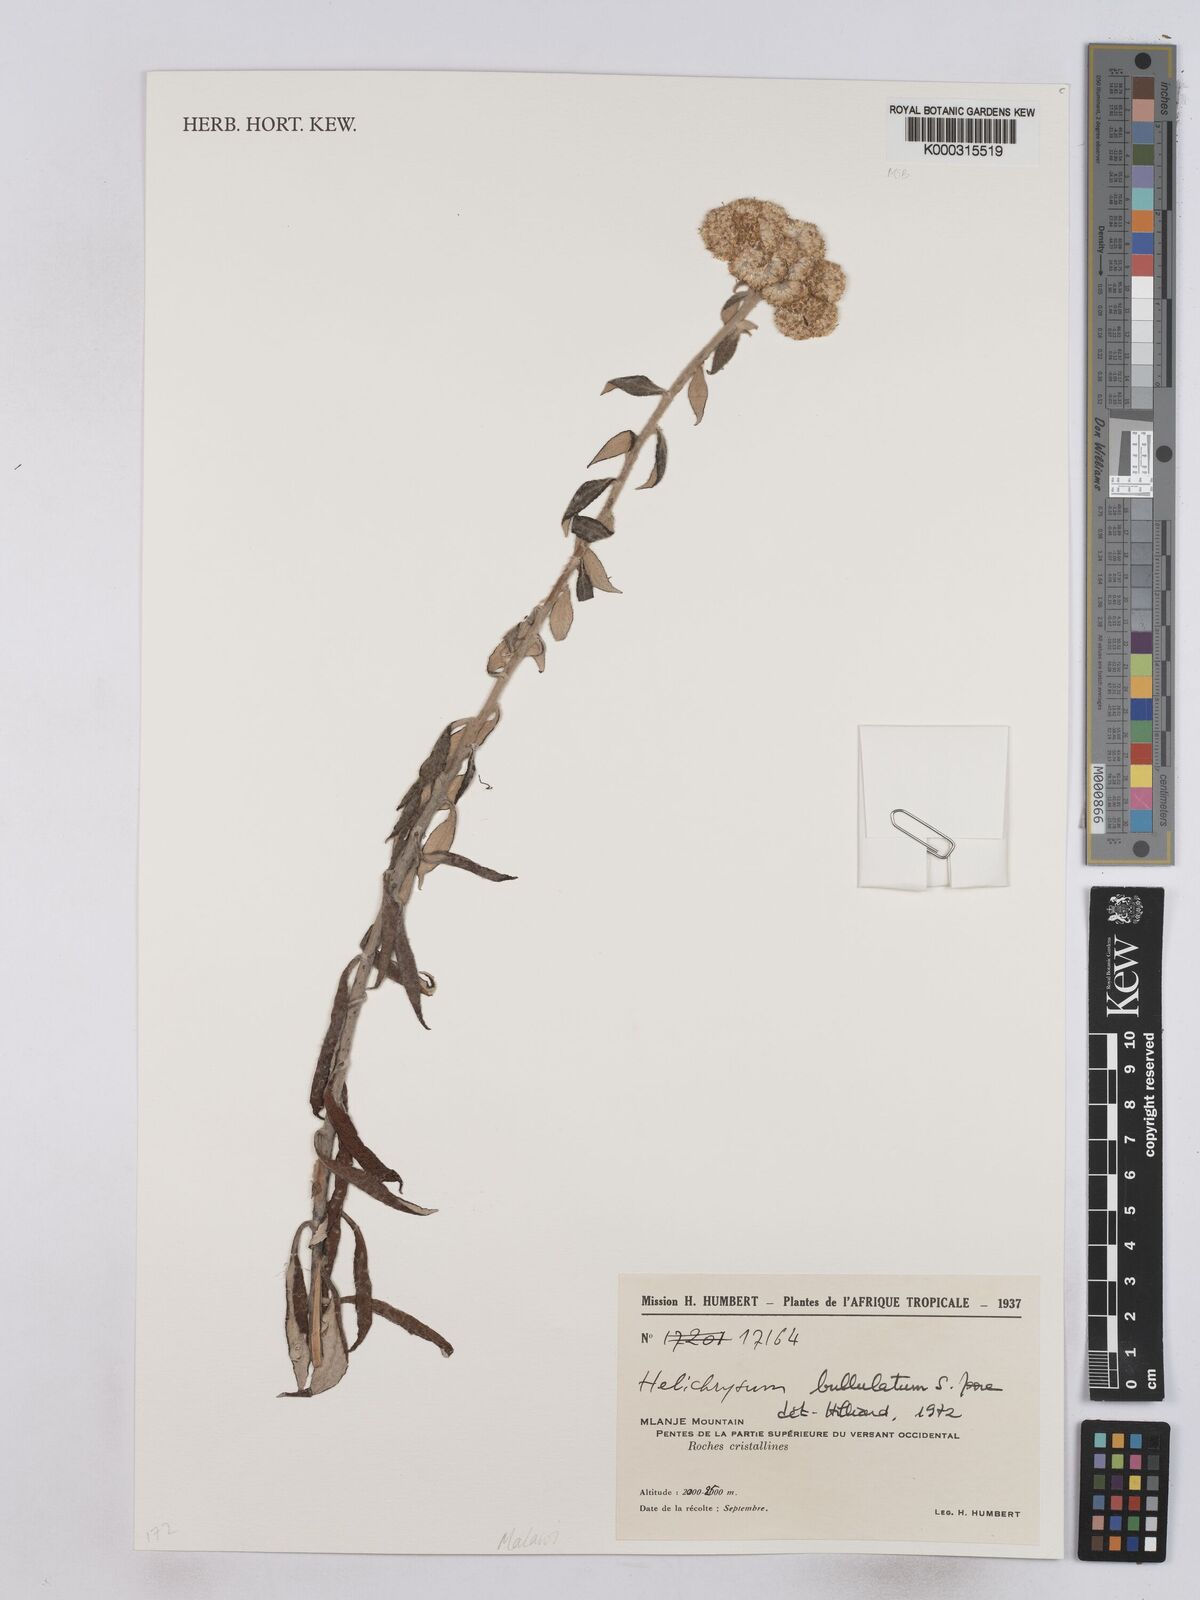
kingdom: Plantae
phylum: Tracheophyta
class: Magnoliopsida
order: Asterales
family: Asteraceae
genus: Helichrysum
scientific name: Helichrysum bullulatum
